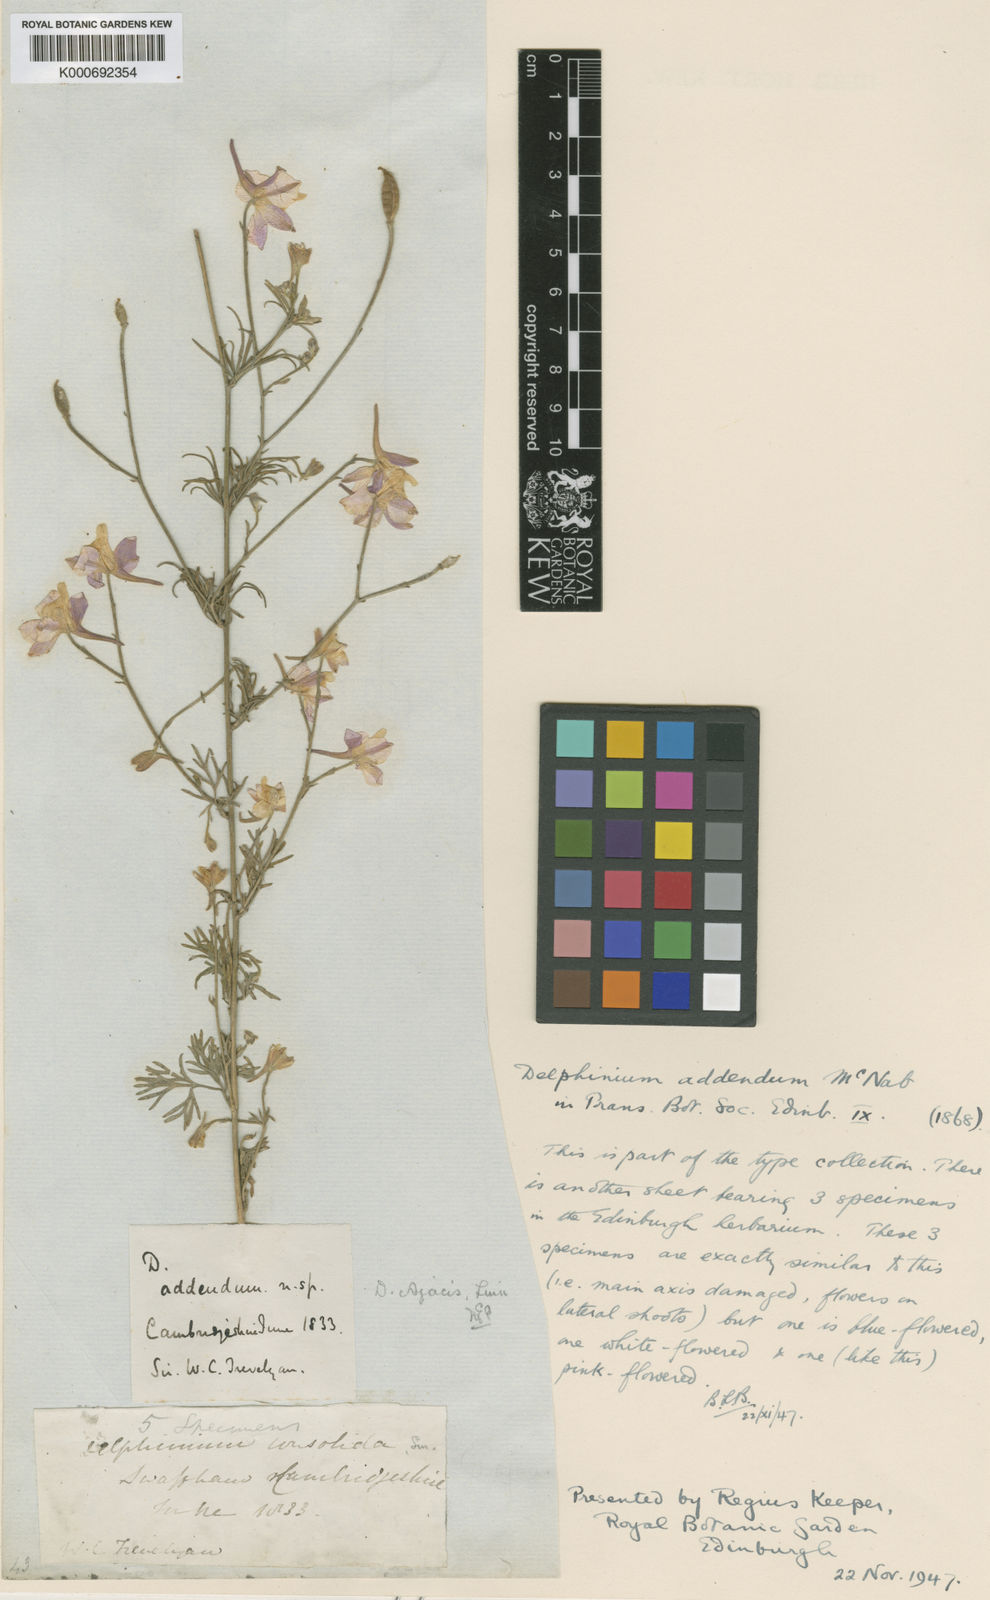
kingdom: Plantae
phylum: Tracheophyta
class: Magnoliopsida
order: Ranunculales
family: Ranunculaceae
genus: Delphinium
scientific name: Delphinium ajacis
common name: Doubtful knight's-spur
